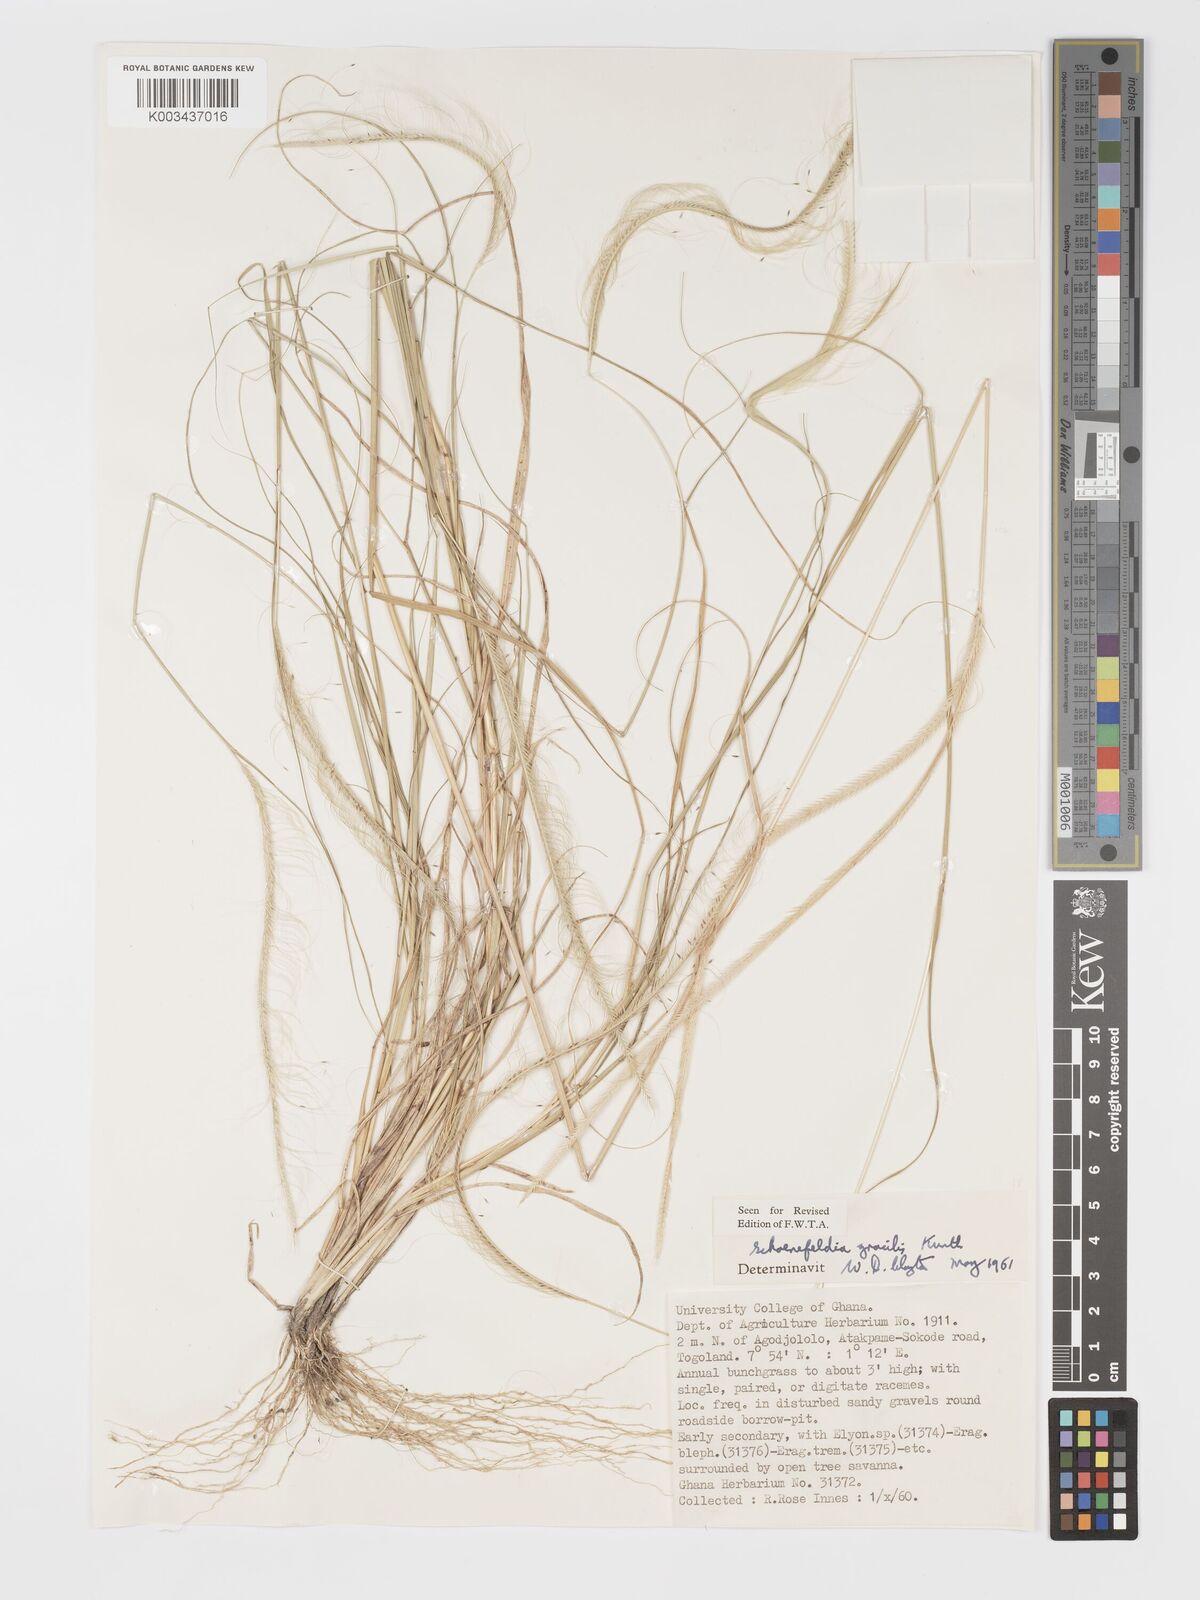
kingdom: Plantae
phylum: Tracheophyta
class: Liliopsida
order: Poales
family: Poaceae
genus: Schoenefeldia
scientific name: Schoenefeldia gracilis
